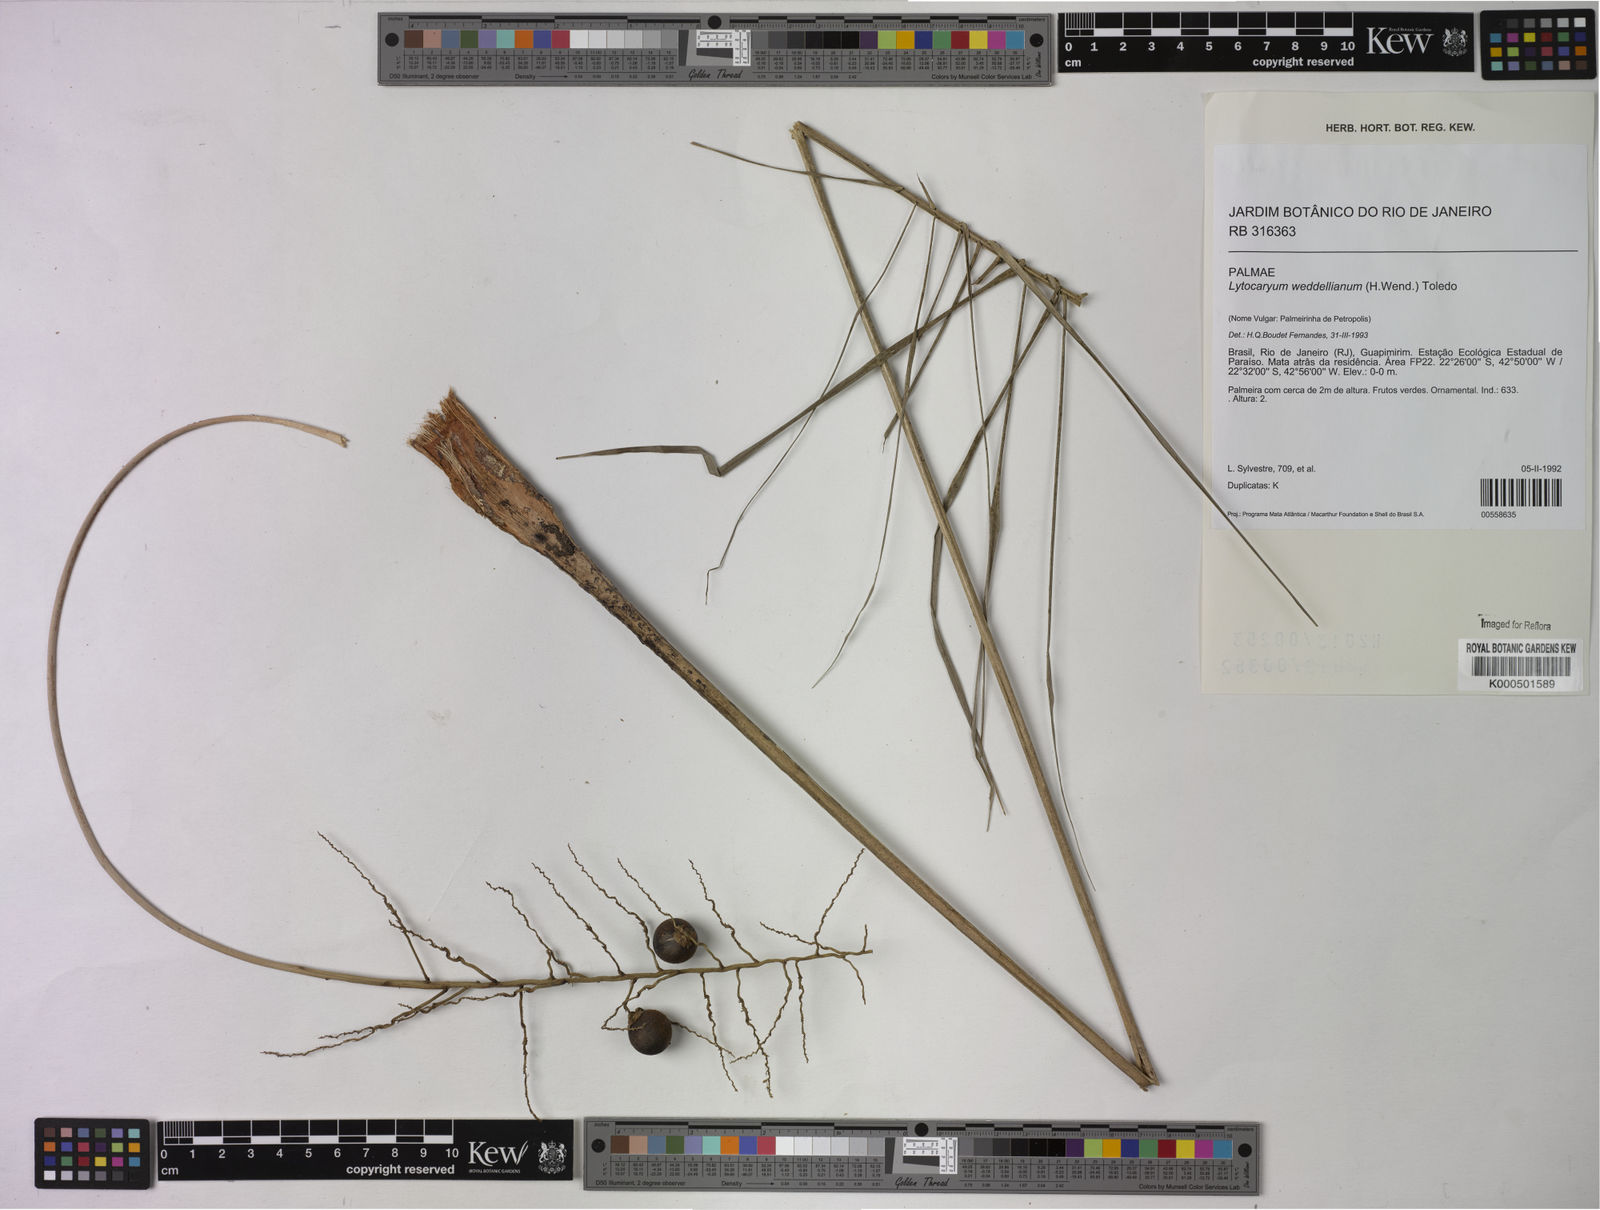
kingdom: Plantae
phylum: Tracheophyta
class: Liliopsida
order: Arecales
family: Arecaceae
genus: Syagrus
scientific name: Syagrus weddelliana
